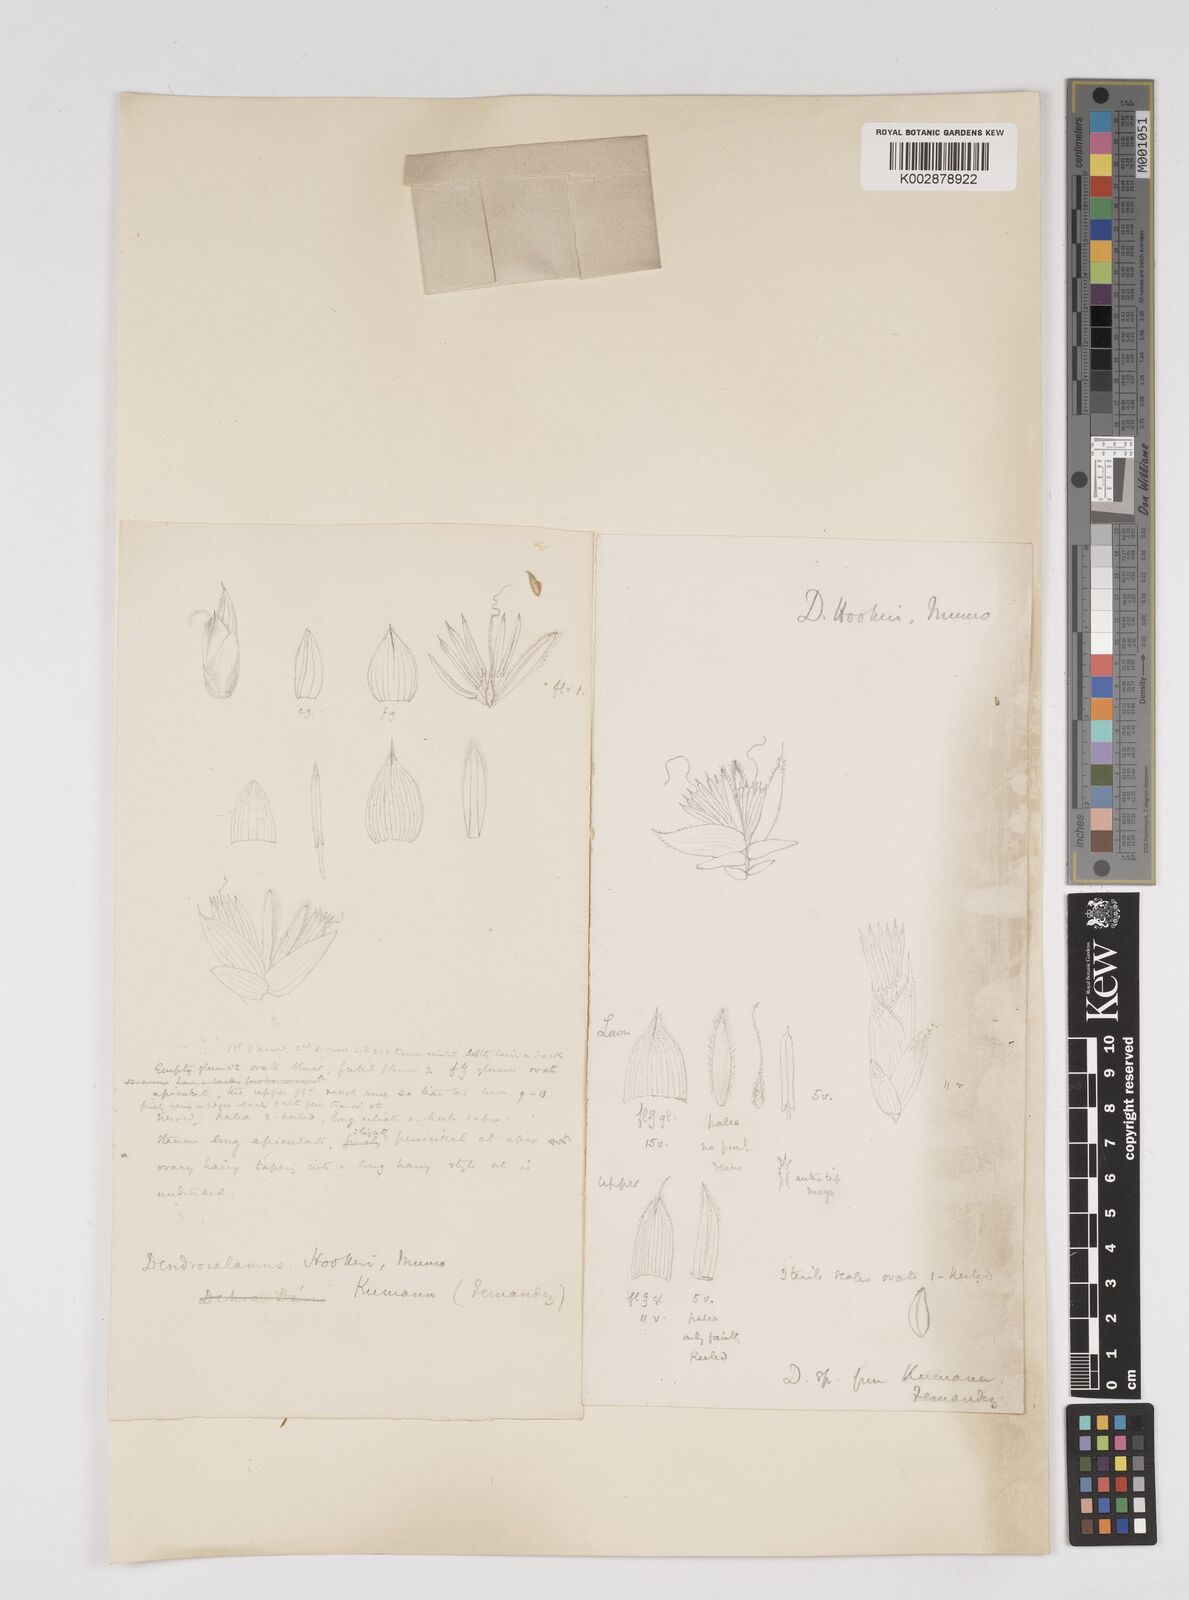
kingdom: Plantae
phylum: Tracheophyta
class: Liliopsida
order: Poales
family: Poaceae
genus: Dendrocalamus
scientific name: Dendrocalamus hookeri
